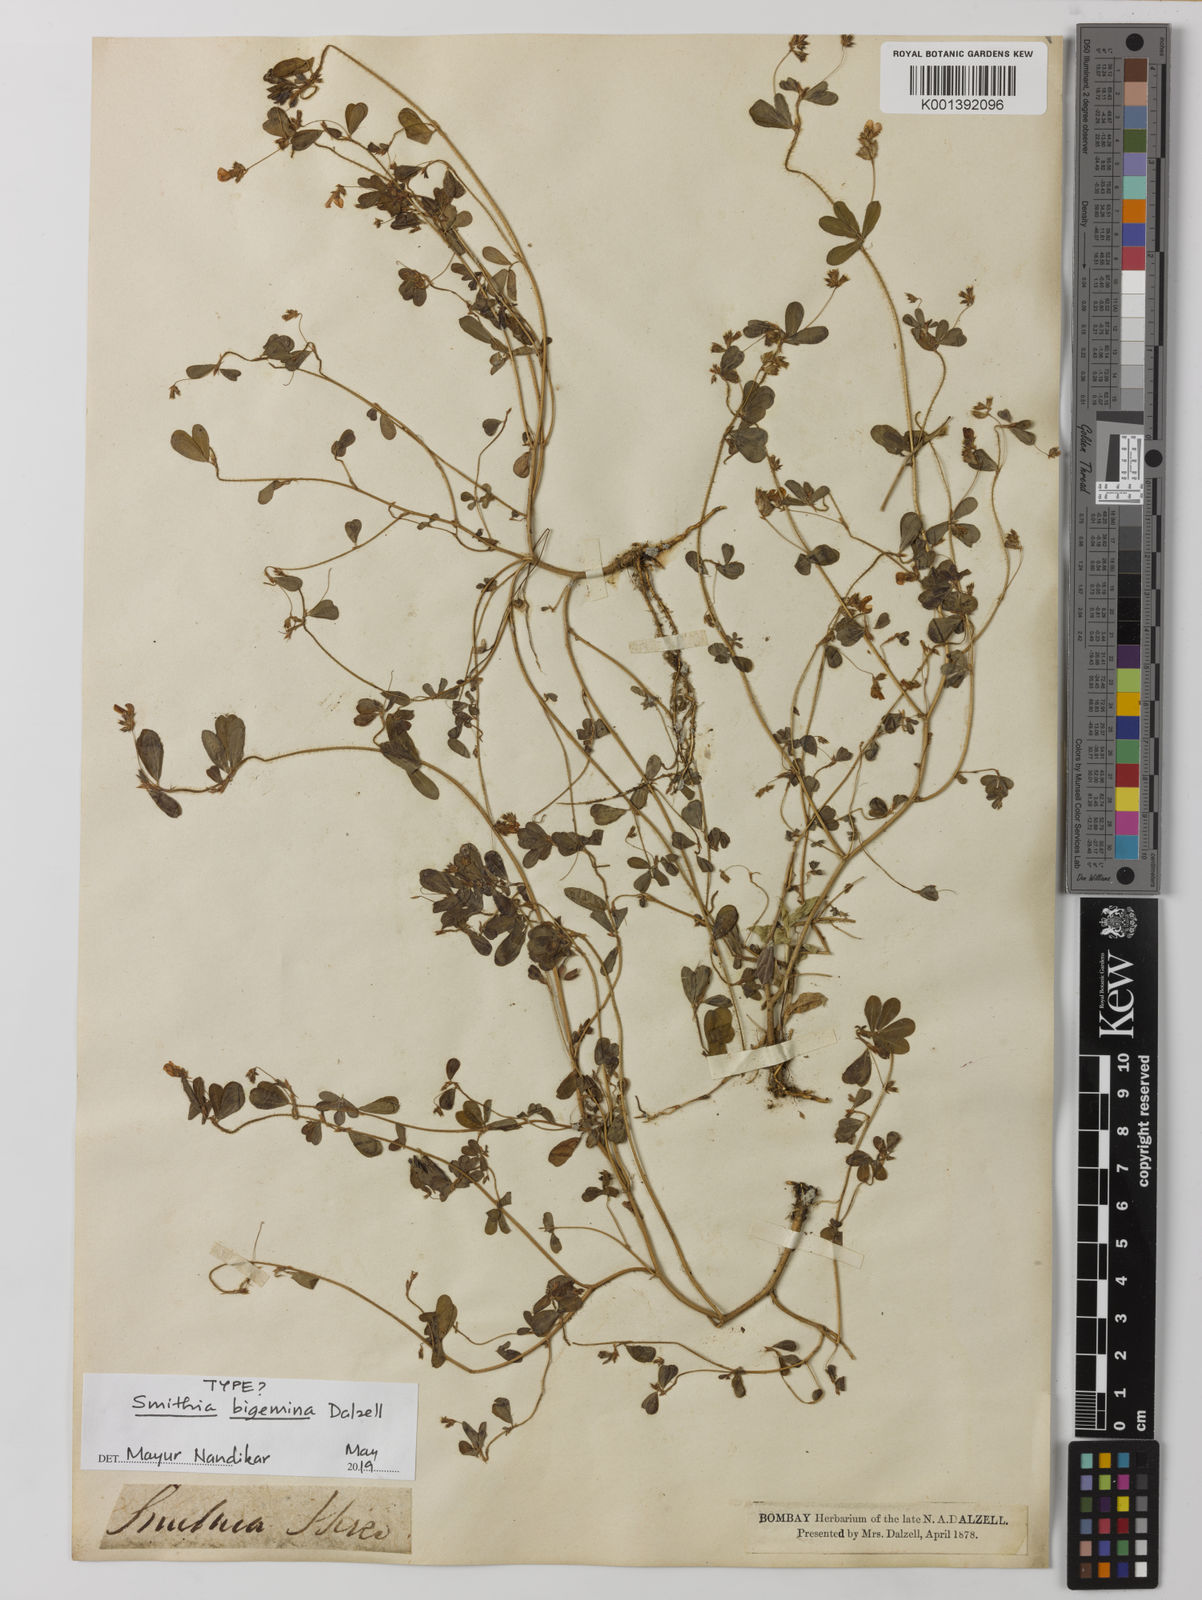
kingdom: Plantae
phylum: Tracheophyta
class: Magnoliopsida
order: Fabales
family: Fabaceae
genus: Smithia
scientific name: Smithia bigemina
